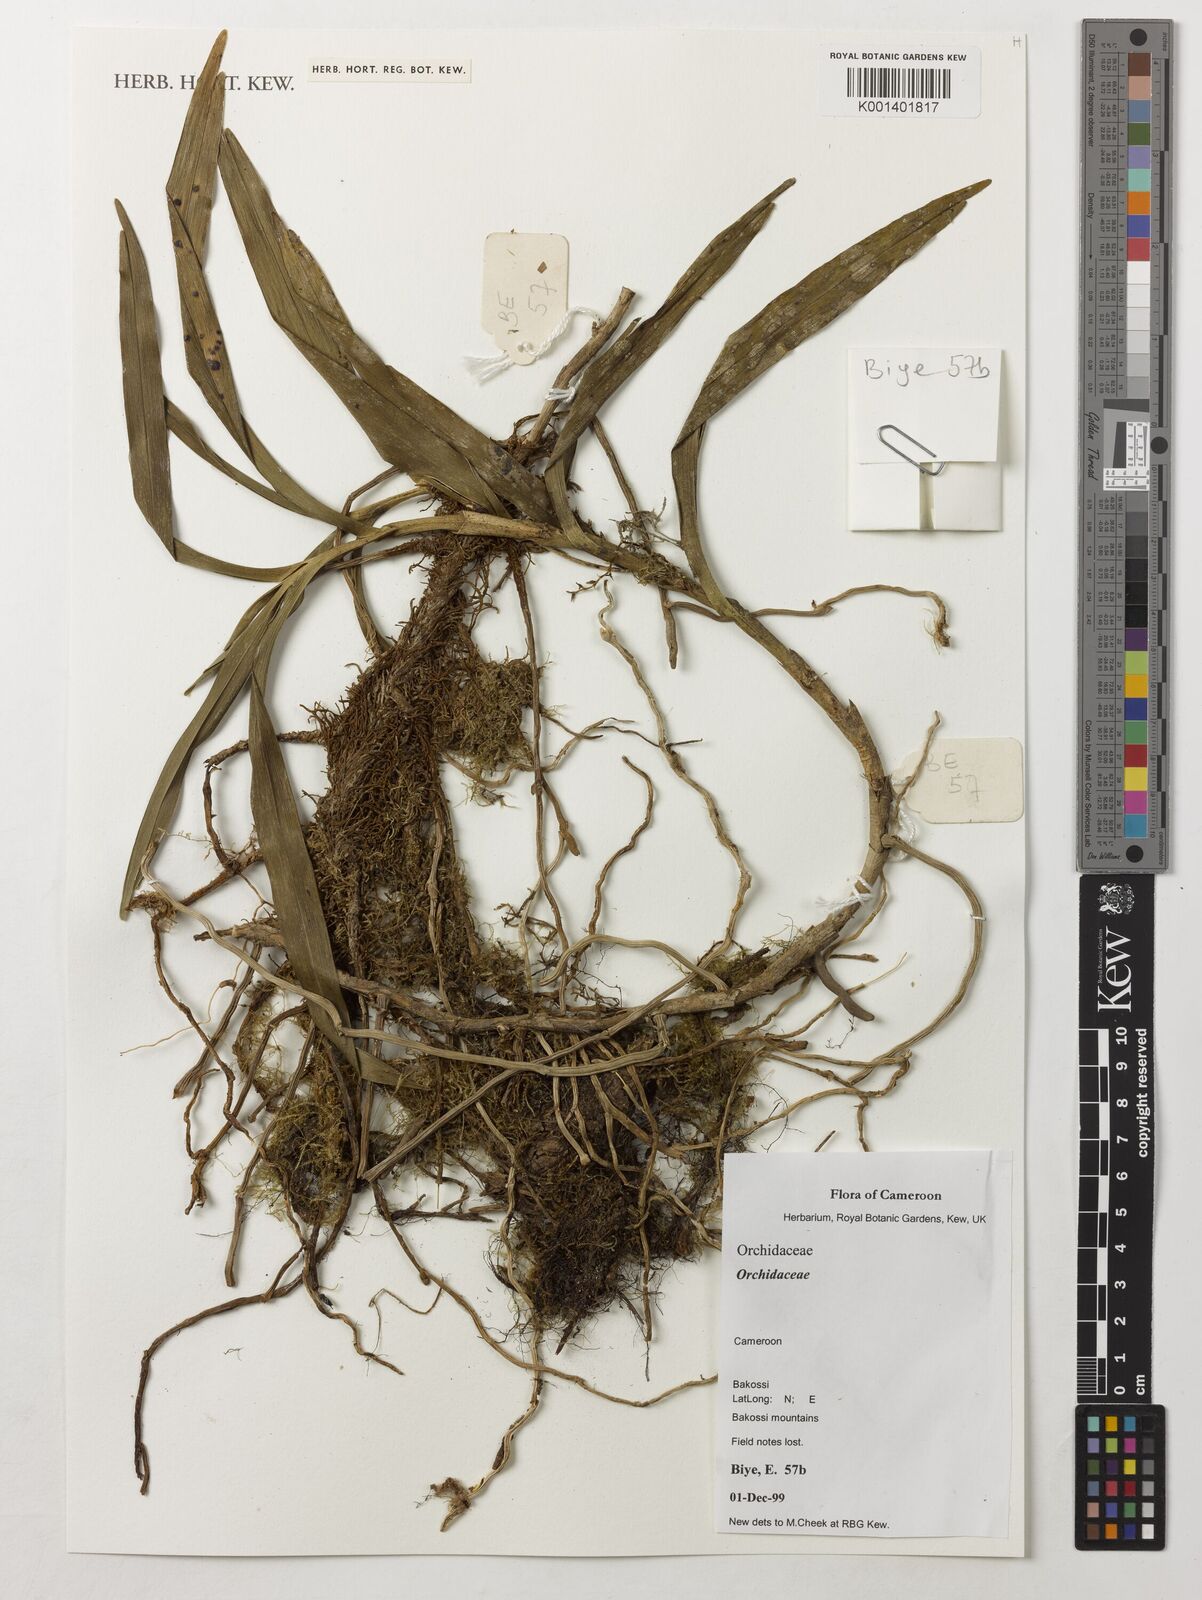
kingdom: Plantae
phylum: Tracheophyta
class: Liliopsida
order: Asparagales
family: Orchidaceae
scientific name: Orchidaceae
